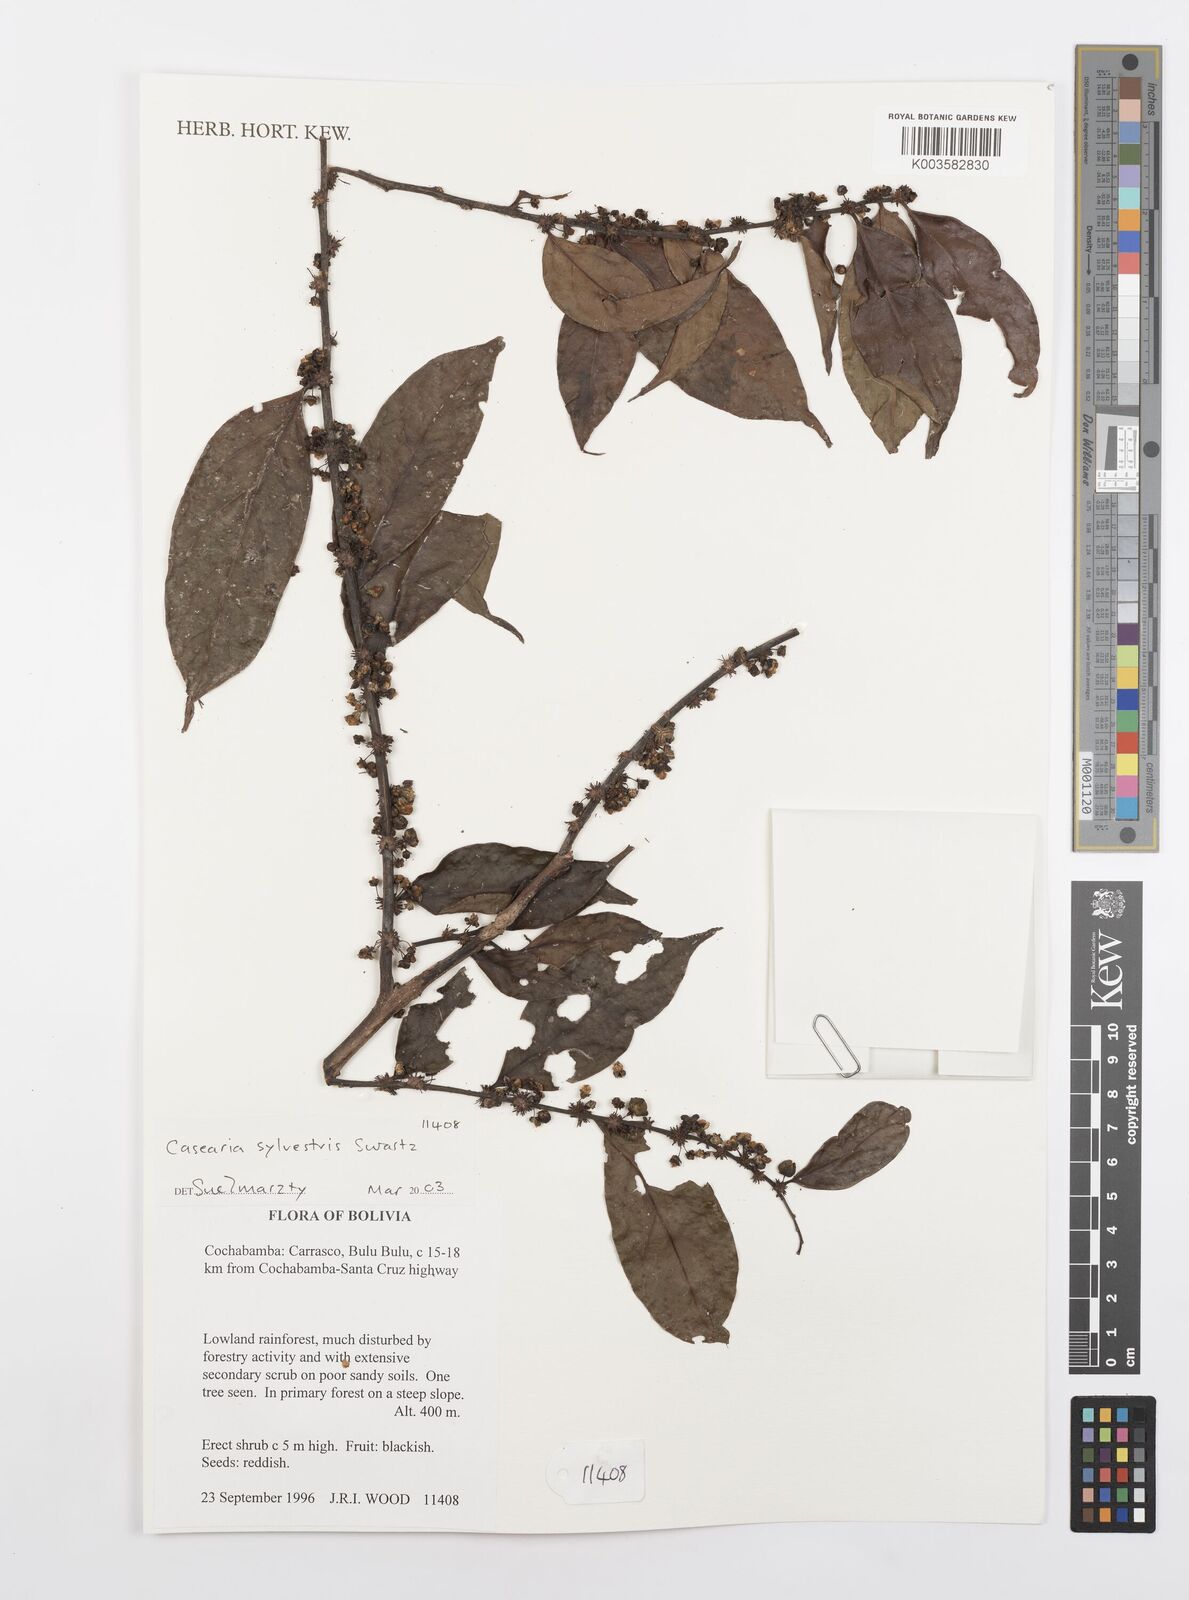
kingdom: Plantae
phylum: Tracheophyta
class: Magnoliopsida
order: Malpighiales
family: Salicaceae
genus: Casearia
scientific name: Casearia sylvestris
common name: Wild sage
